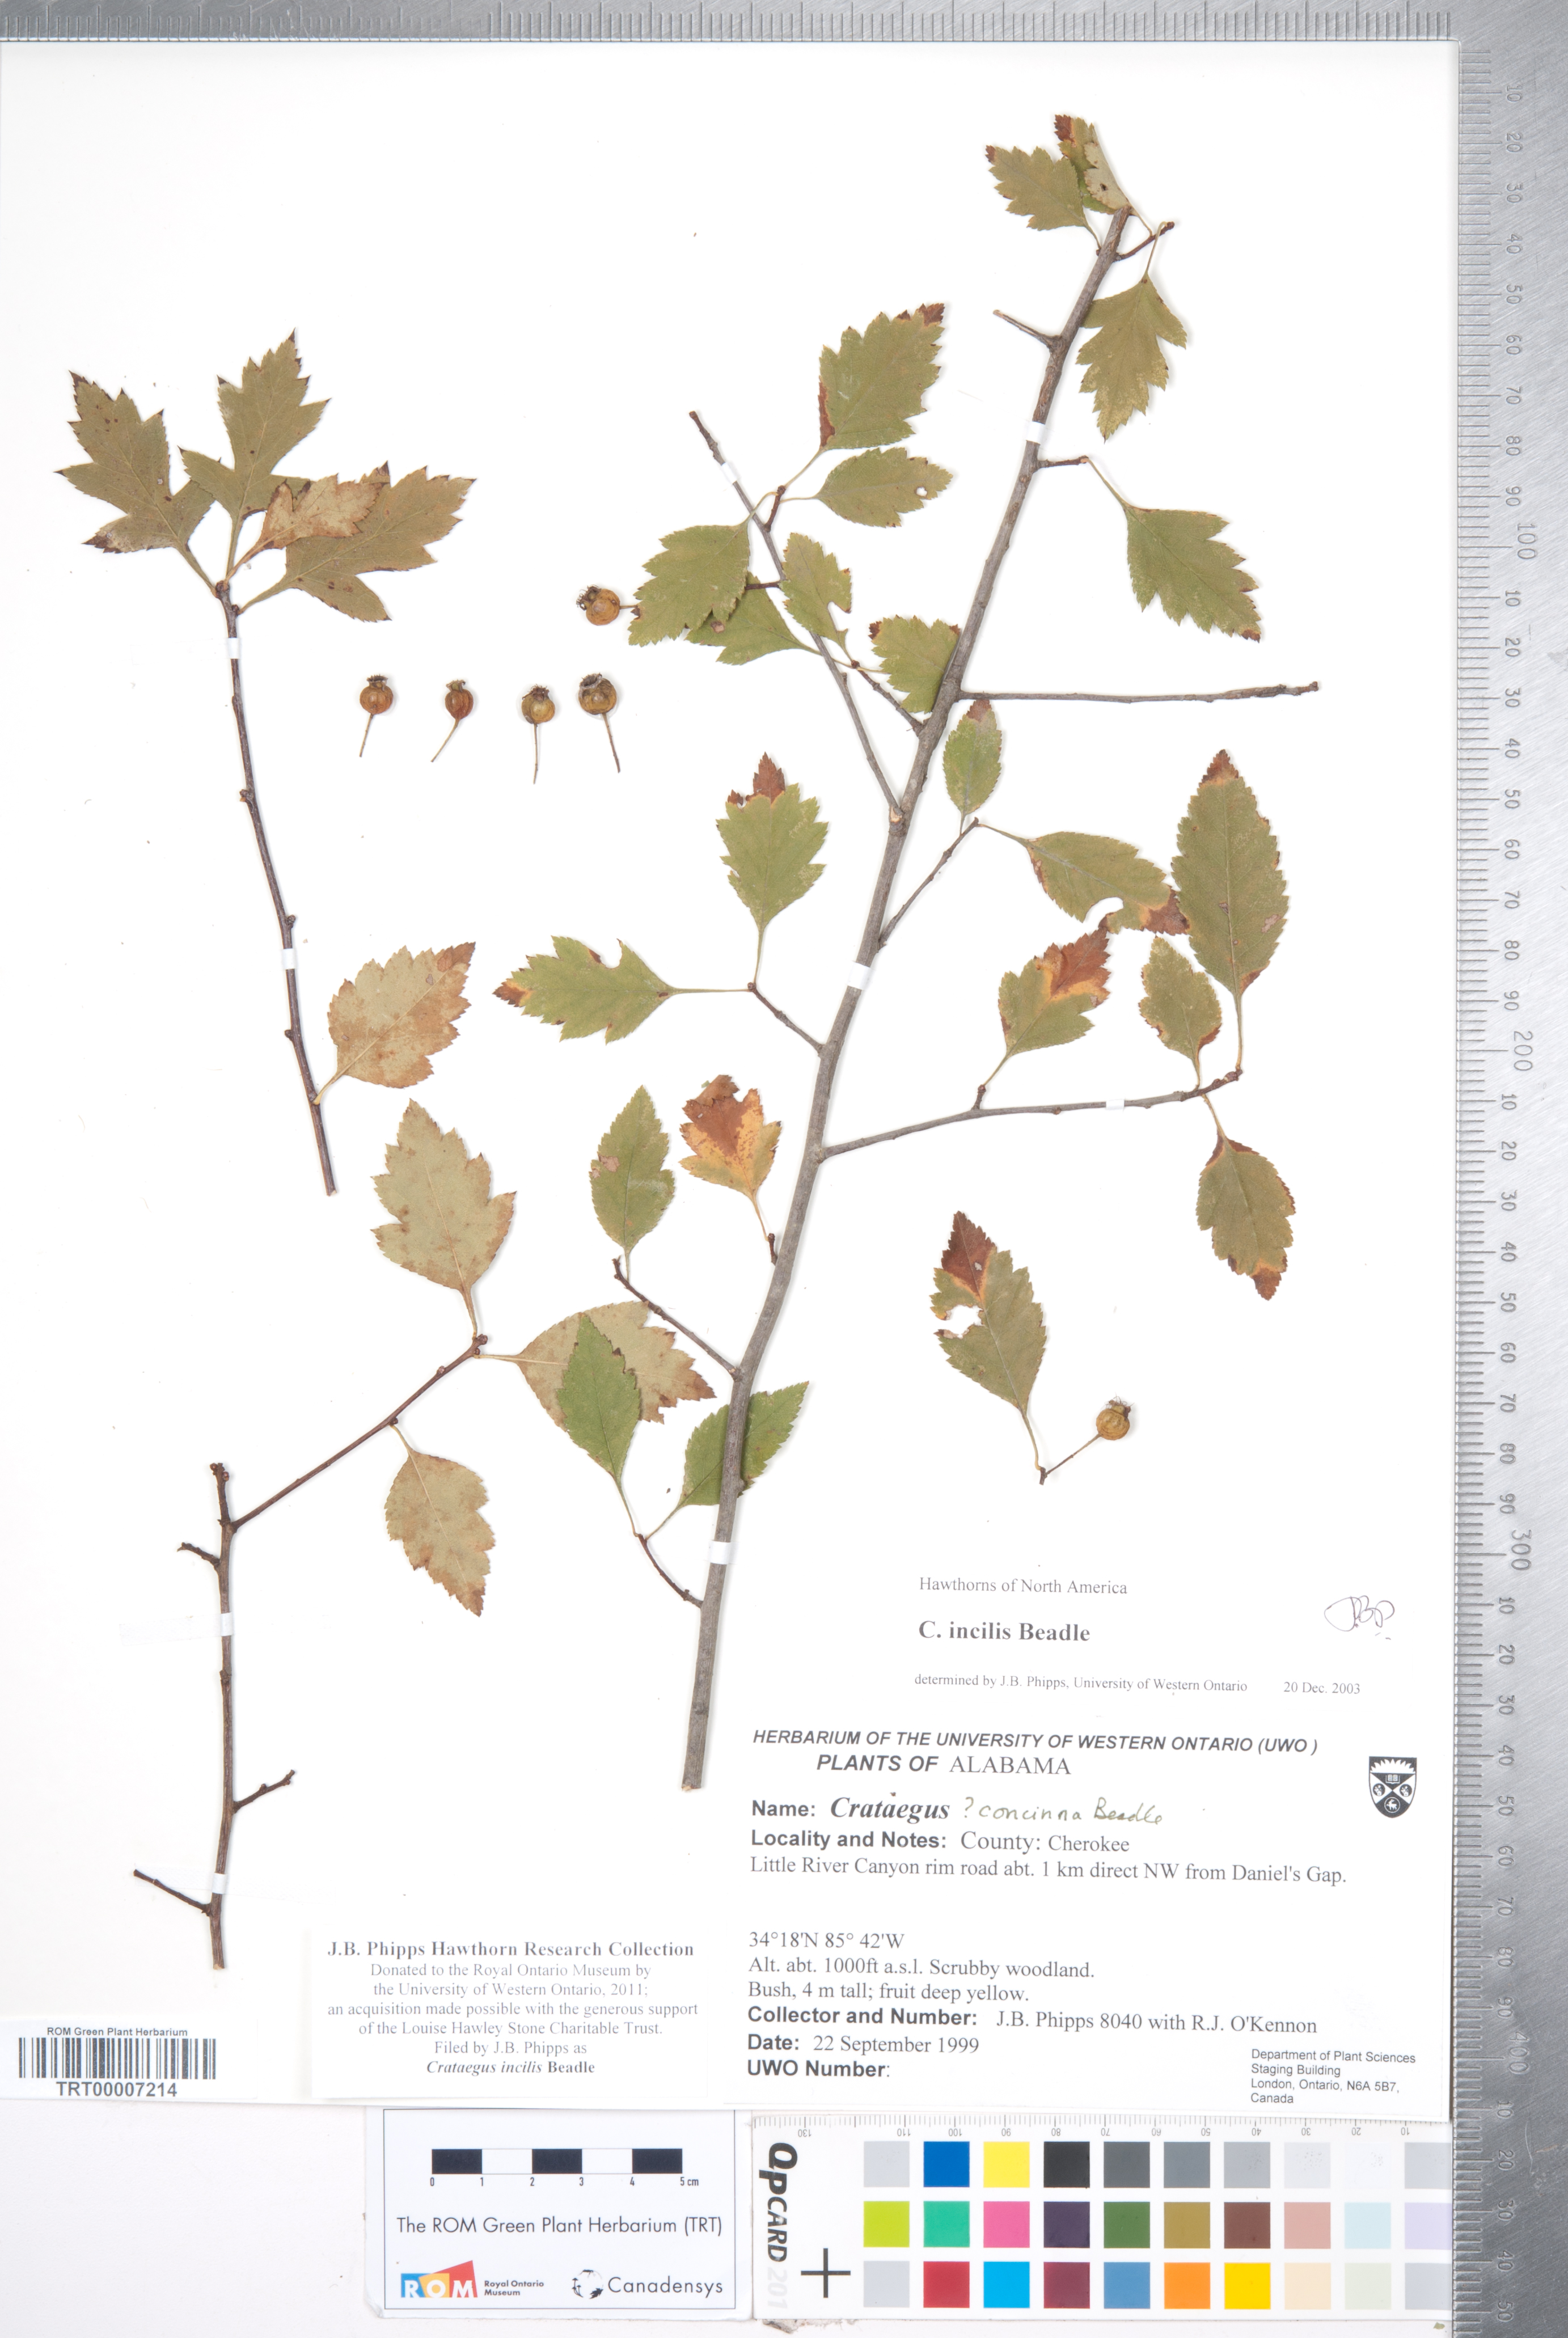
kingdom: Plantae
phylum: Tracheophyta
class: Magnoliopsida
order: Rosales
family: Rosaceae
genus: Crataegus
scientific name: Crataegus pulcherrima
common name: Beautiful hawthorn
